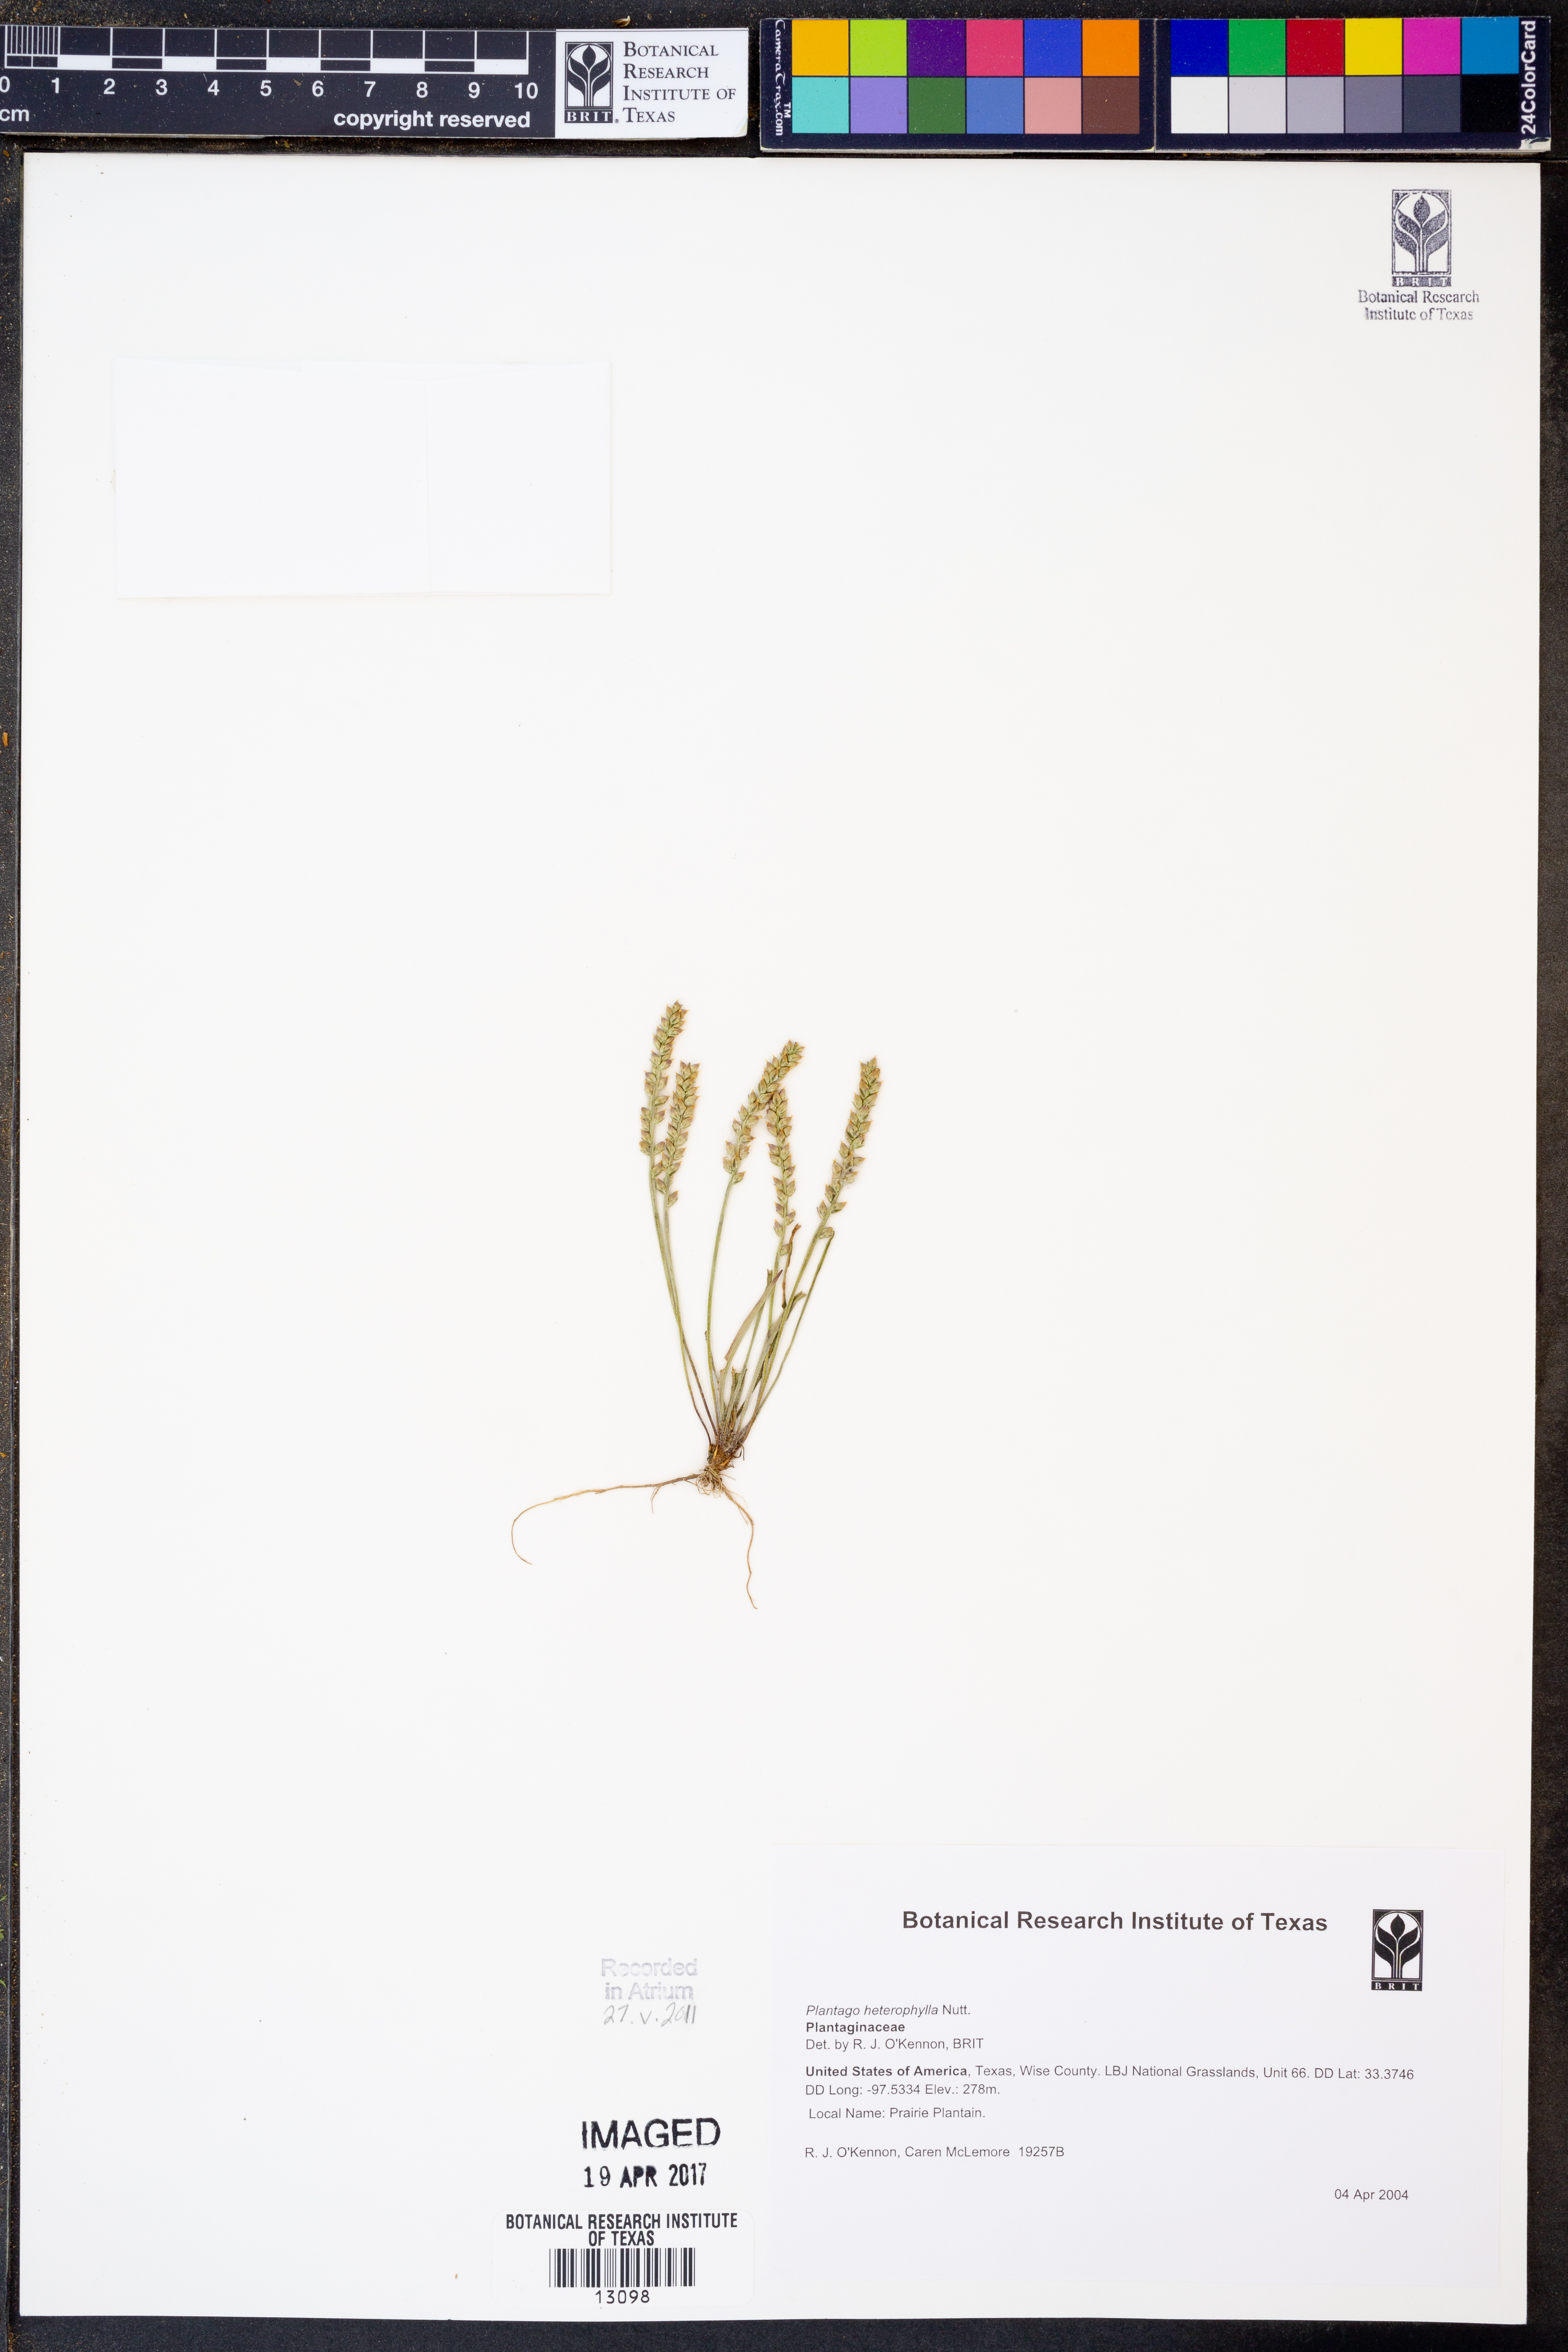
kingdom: Plantae
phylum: Tracheophyta
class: Magnoliopsida
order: Lamiales
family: Plantaginaceae
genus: Plantago
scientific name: Plantago heterophylla
